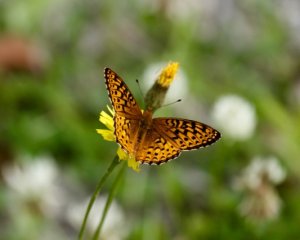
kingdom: Animalia
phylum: Arthropoda
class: Insecta
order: Lepidoptera
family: Nymphalidae
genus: Speyeria
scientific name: Speyeria atlantis
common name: Atlantis Fritillary
